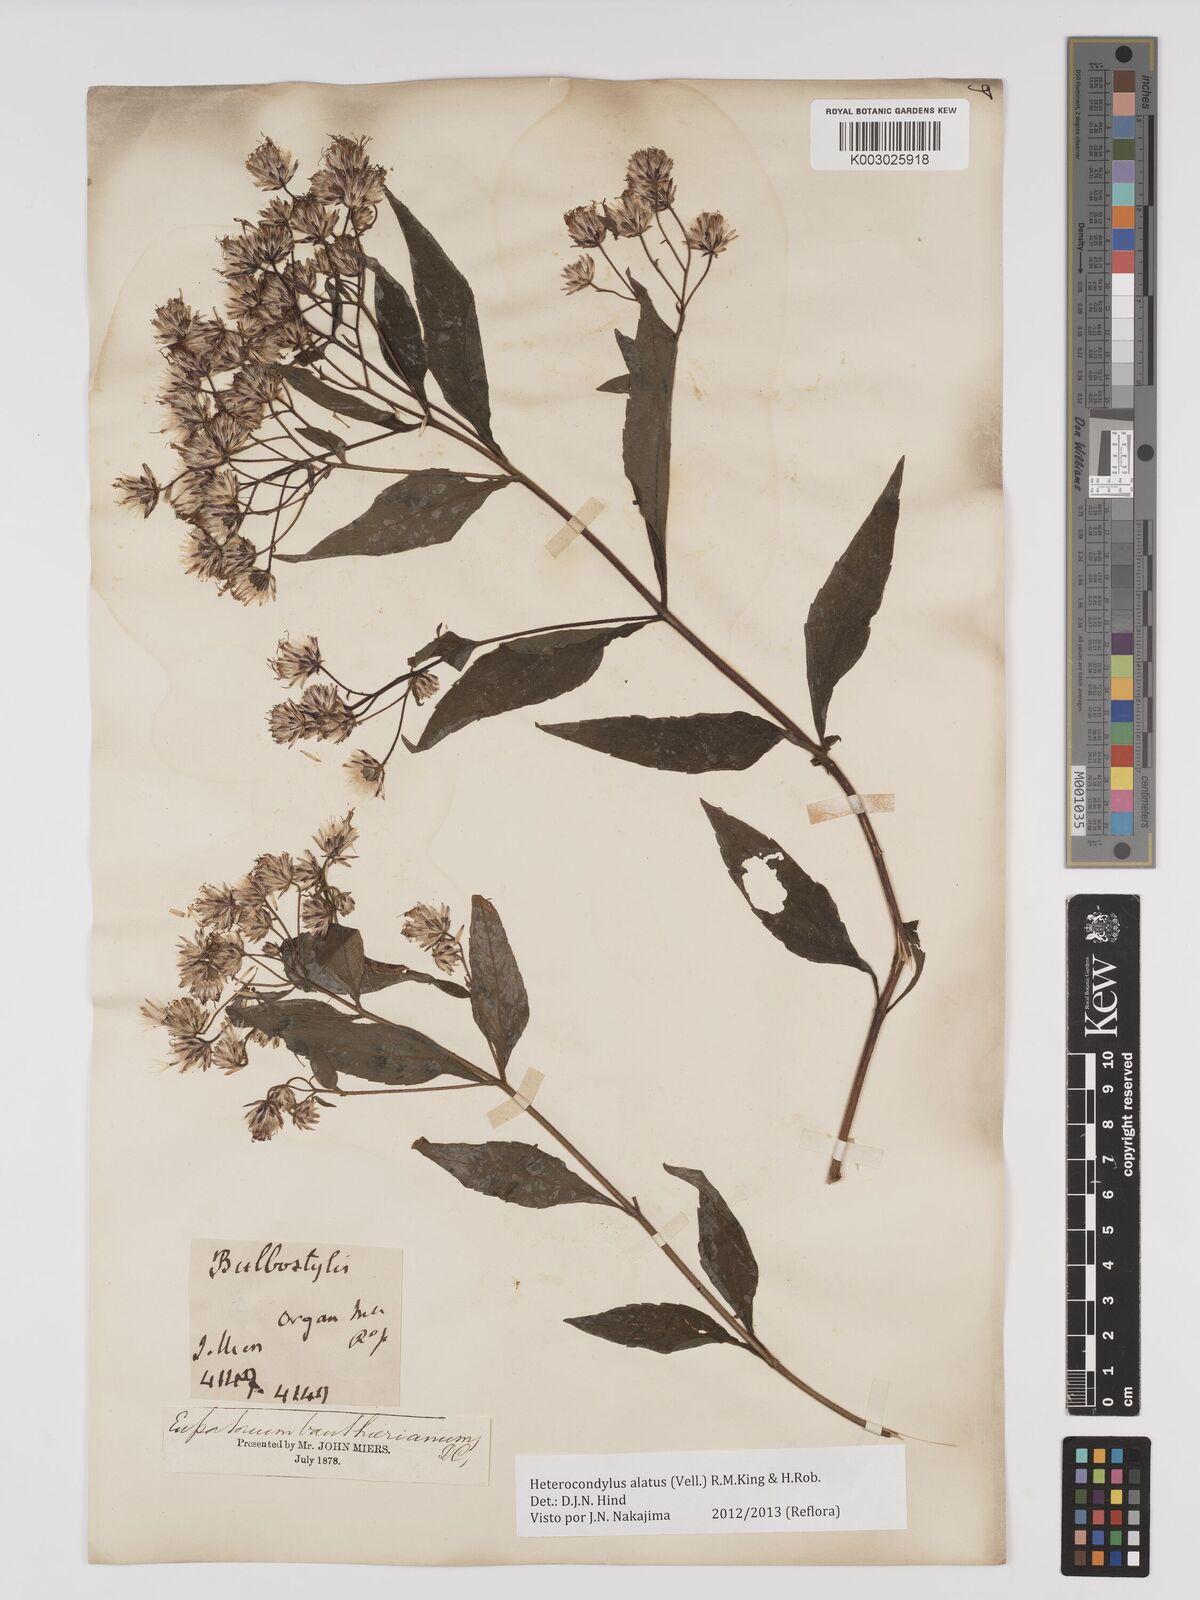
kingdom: Plantae
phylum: Tracheophyta
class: Magnoliopsida
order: Asterales
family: Asteraceae
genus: Heterocondylus
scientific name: Heterocondylus alatus
